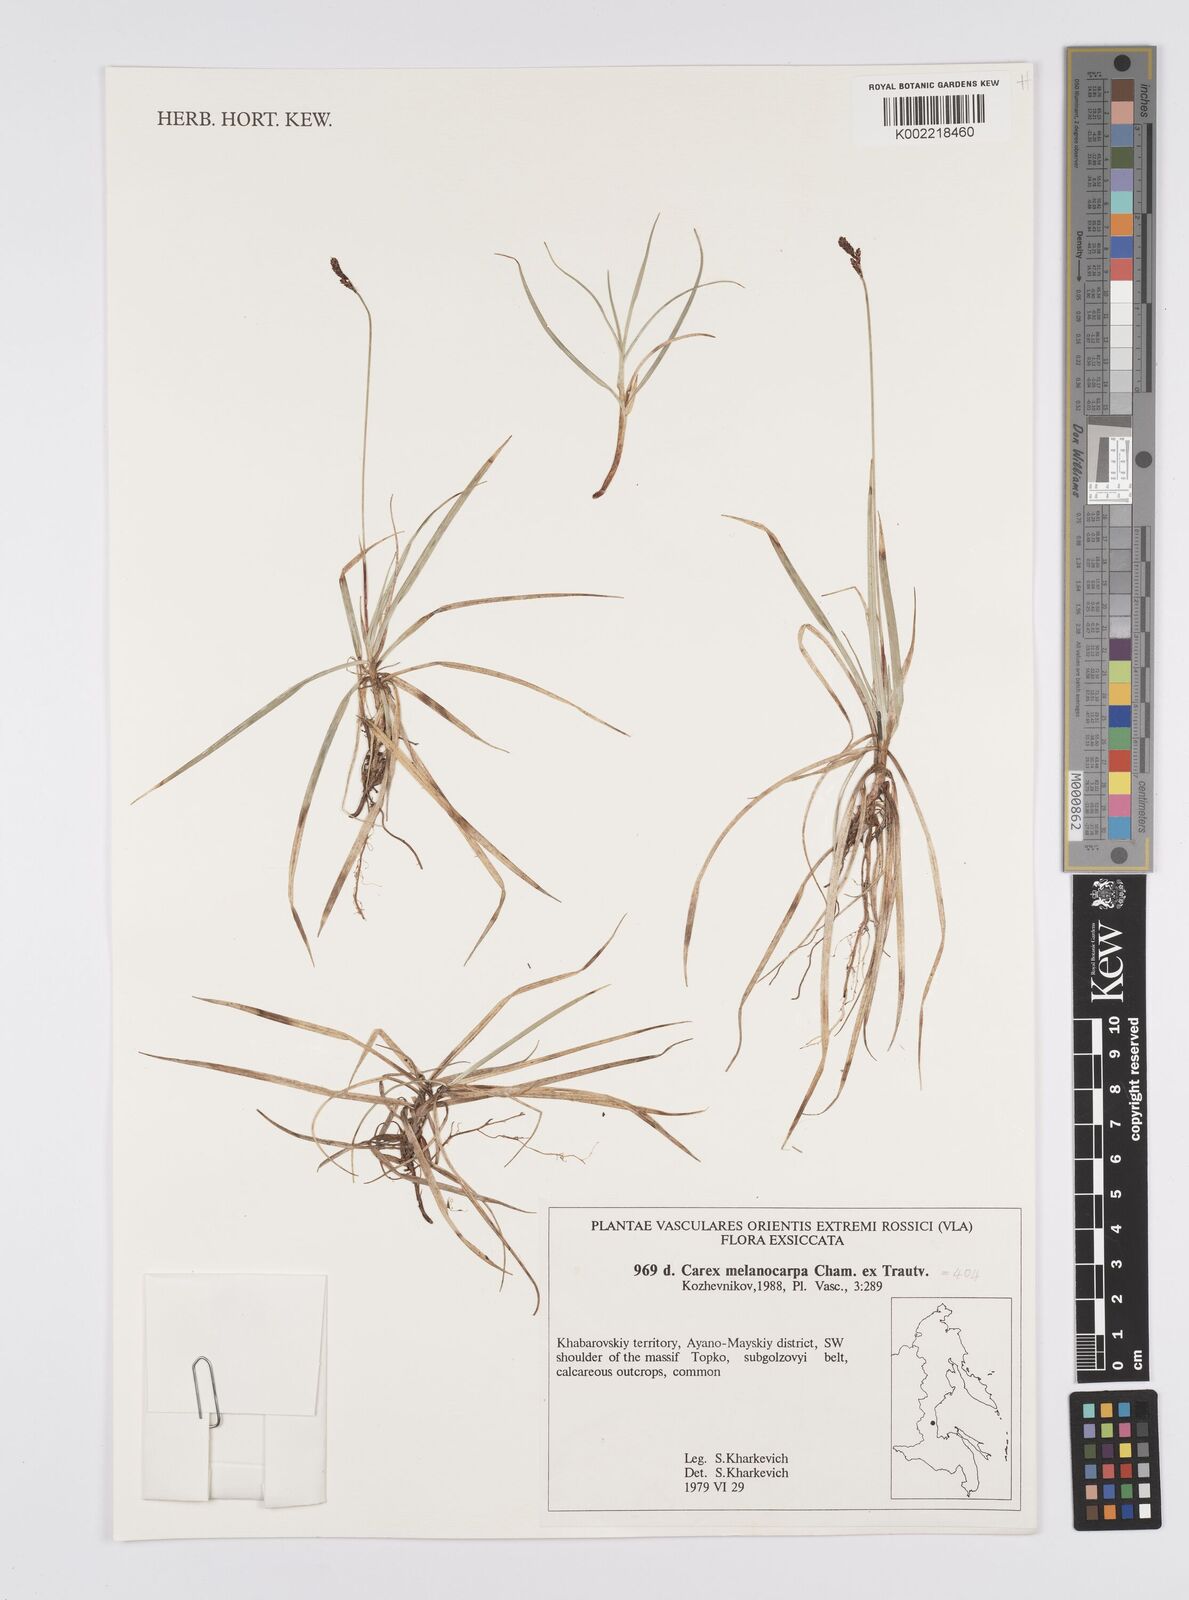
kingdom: Plantae
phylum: Tracheophyta
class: Liliopsida
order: Poales
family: Cyperaceae
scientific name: Cyperaceae
